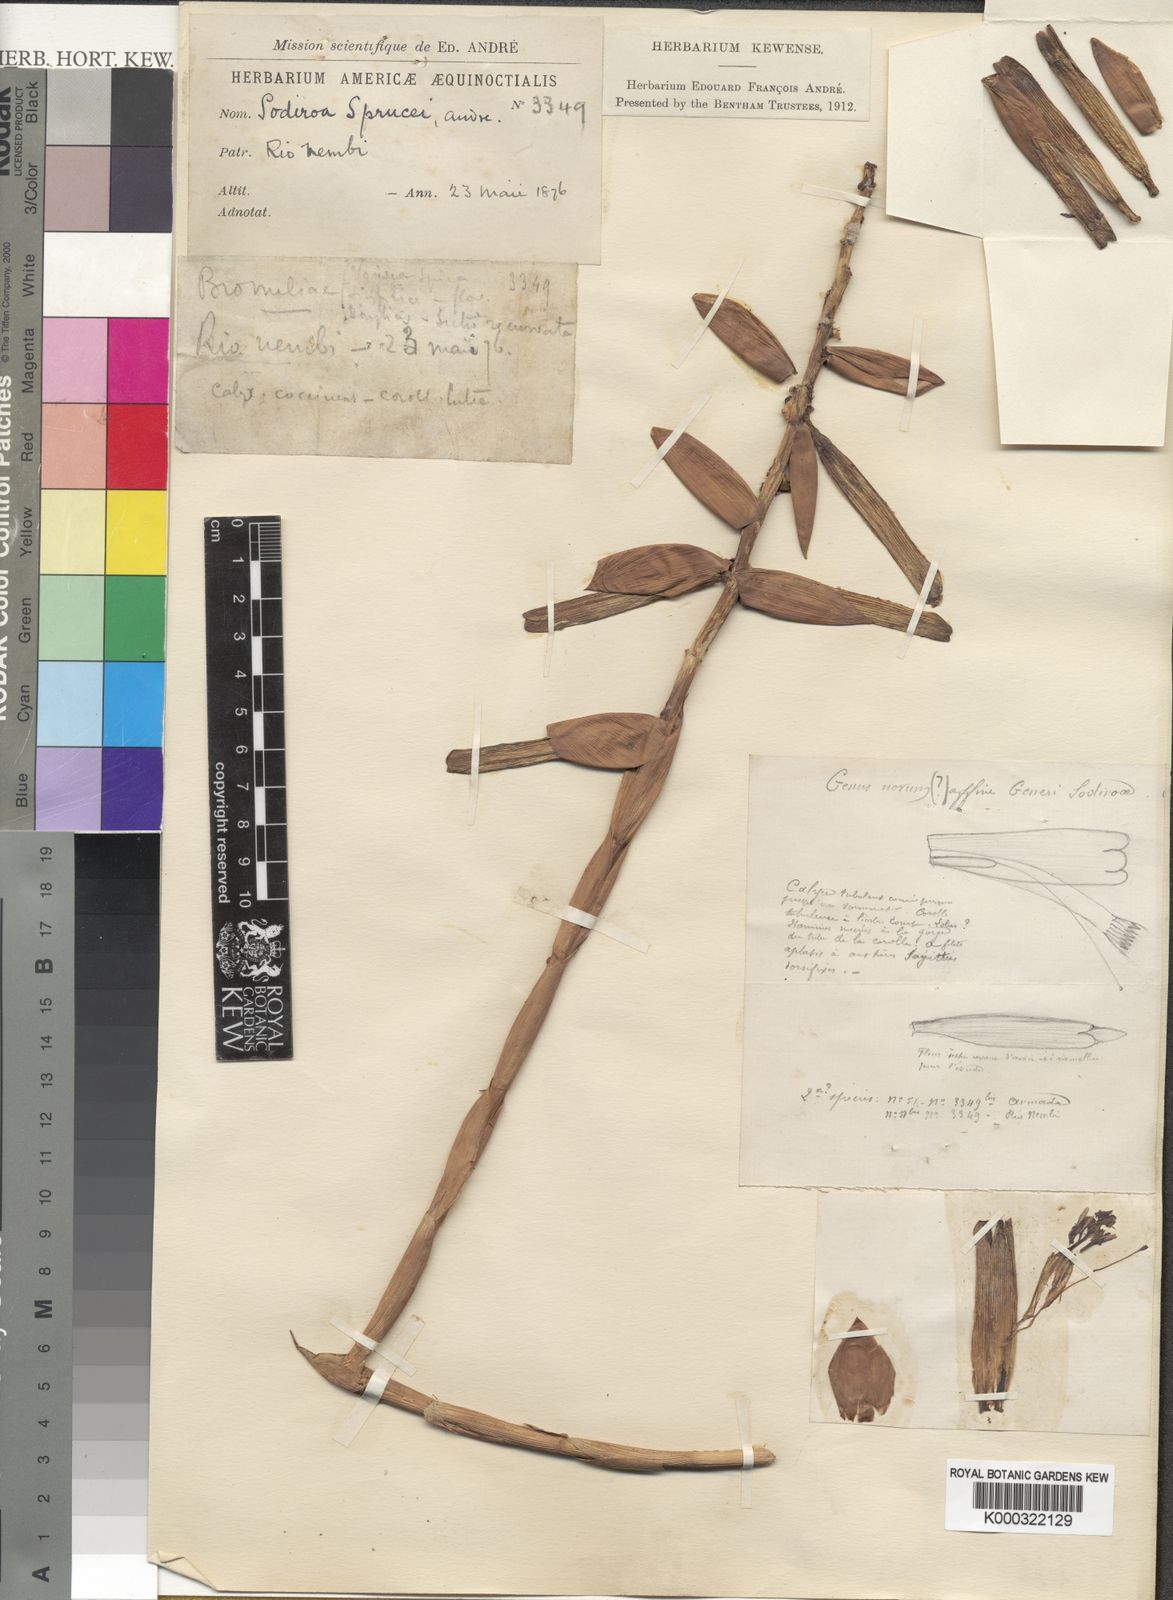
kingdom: Plantae
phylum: Tracheophyta
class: Liliopsida
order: Poales
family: Bromeliaceae
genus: Guzmania
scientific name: Guzmania sprucei
